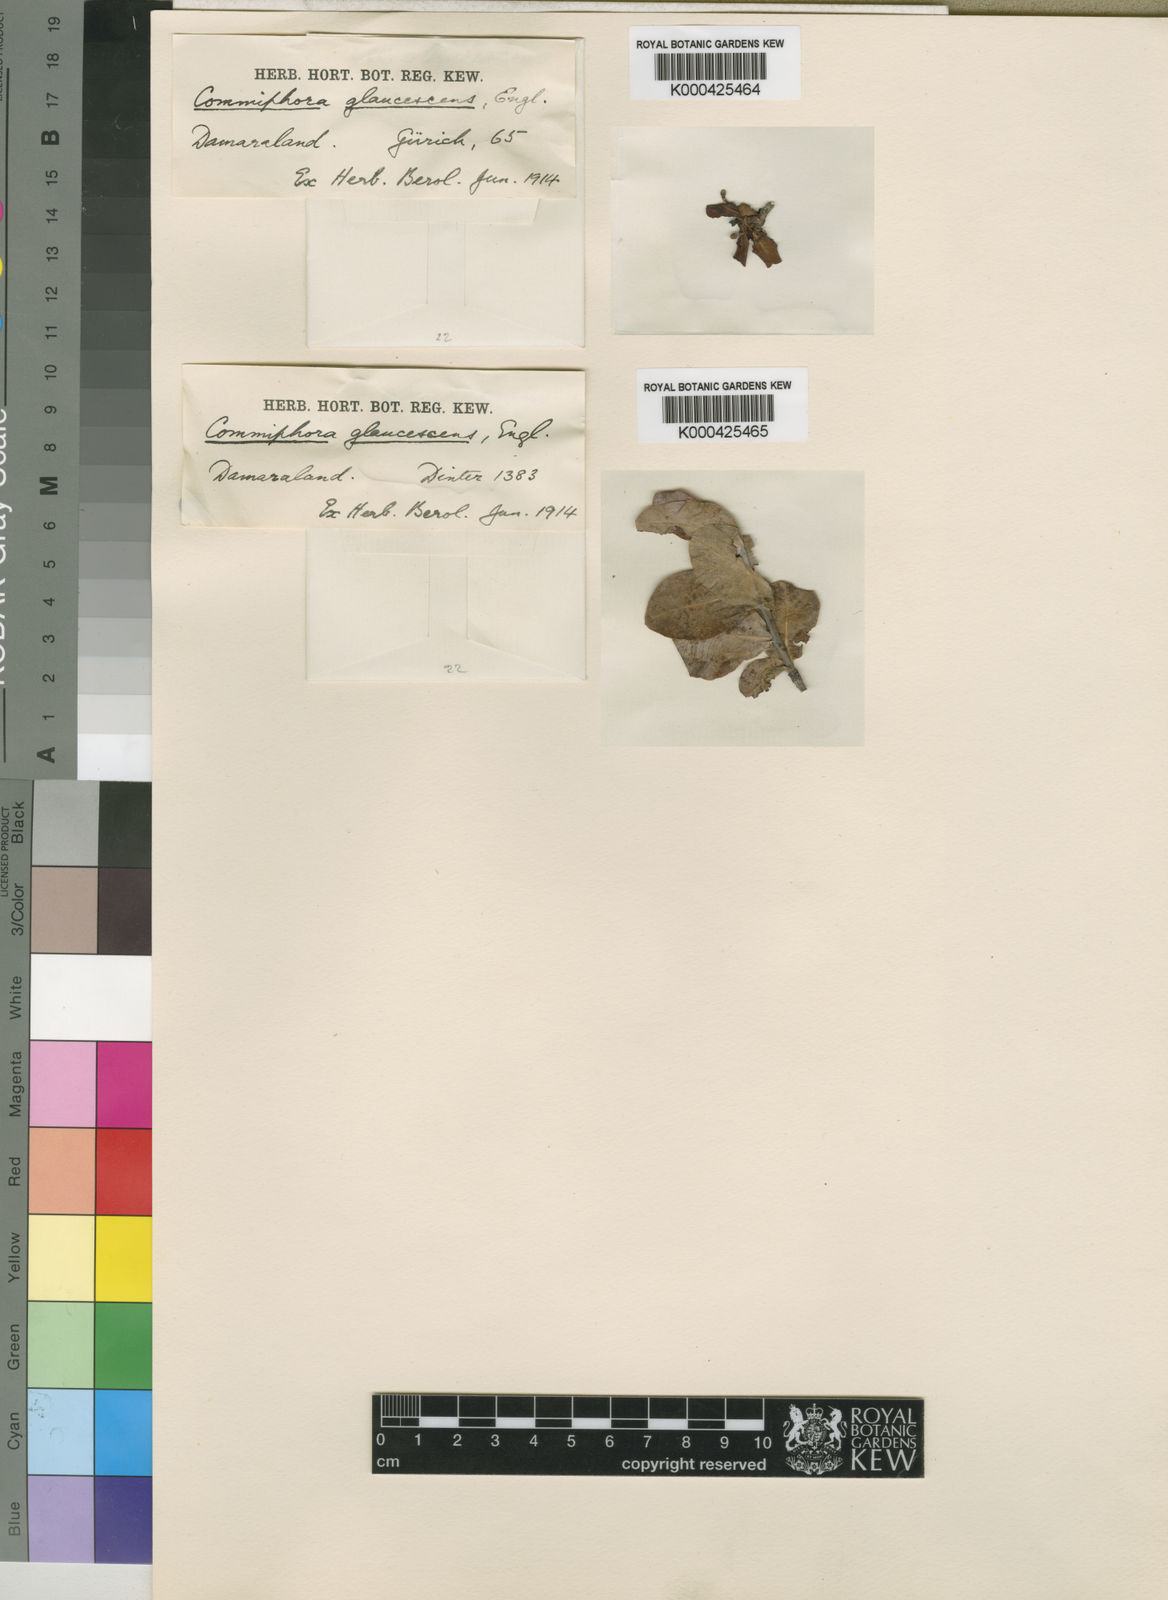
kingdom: Plantae
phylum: Tracheophyta
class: Magnoliopsida
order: Sapindales
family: Burseraceae
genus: Commiphora
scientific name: Commiphora glaucescens
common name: Blue-leaved corkwood
